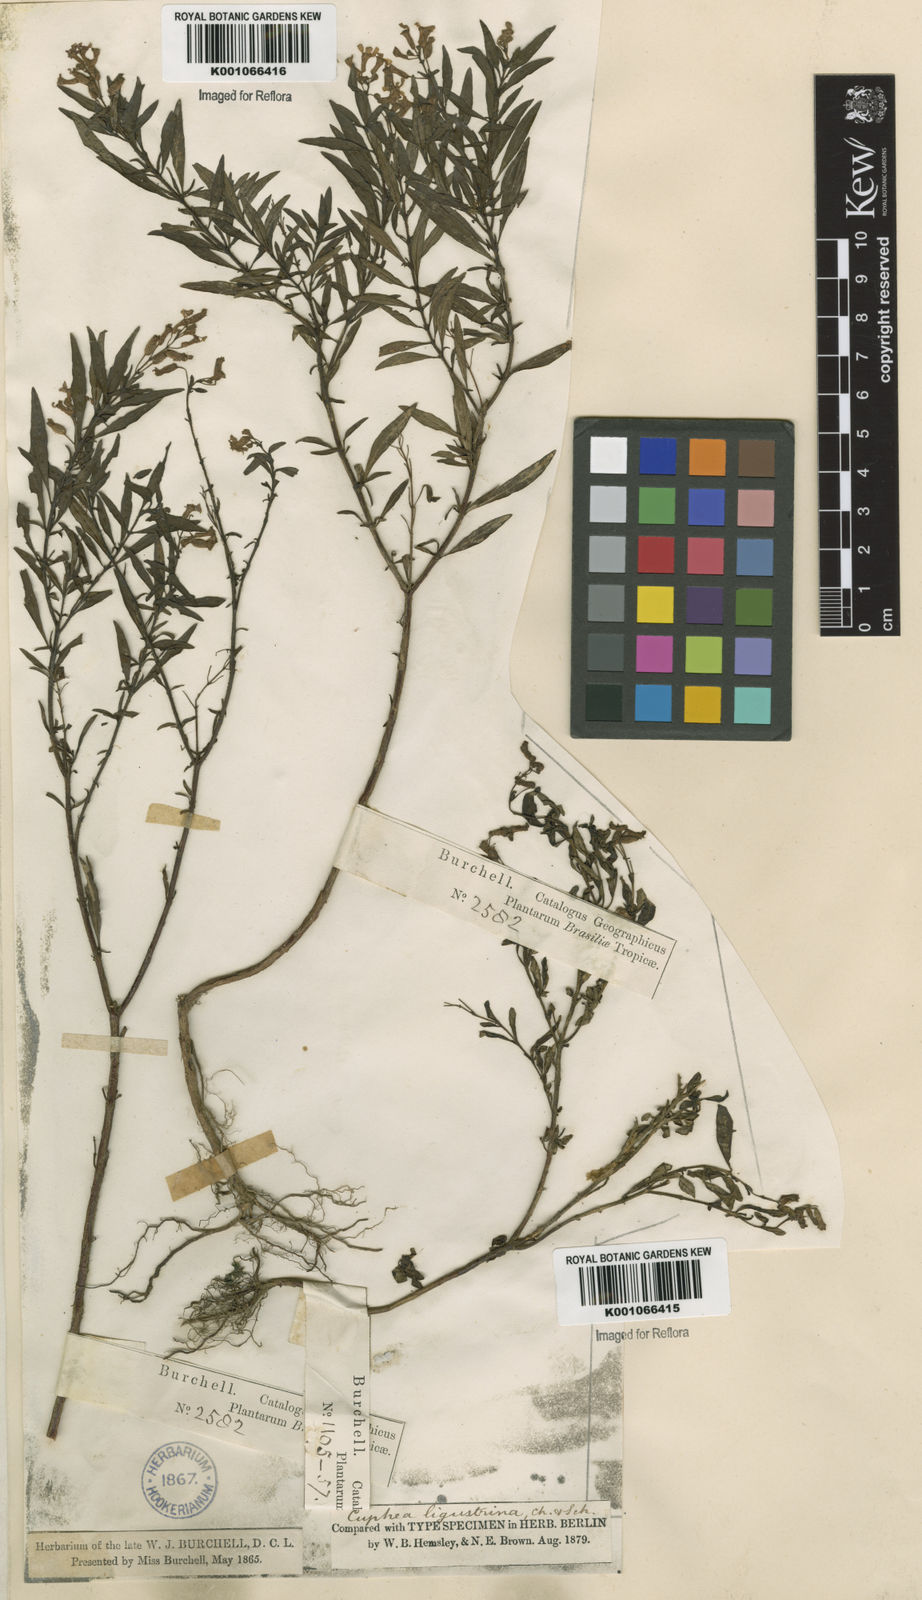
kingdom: Plantae
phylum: Tracheophyta
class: Magnoliopsida
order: Myrtales
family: Lythraceae
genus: Cuphea
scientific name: Cuphea fruticosa
